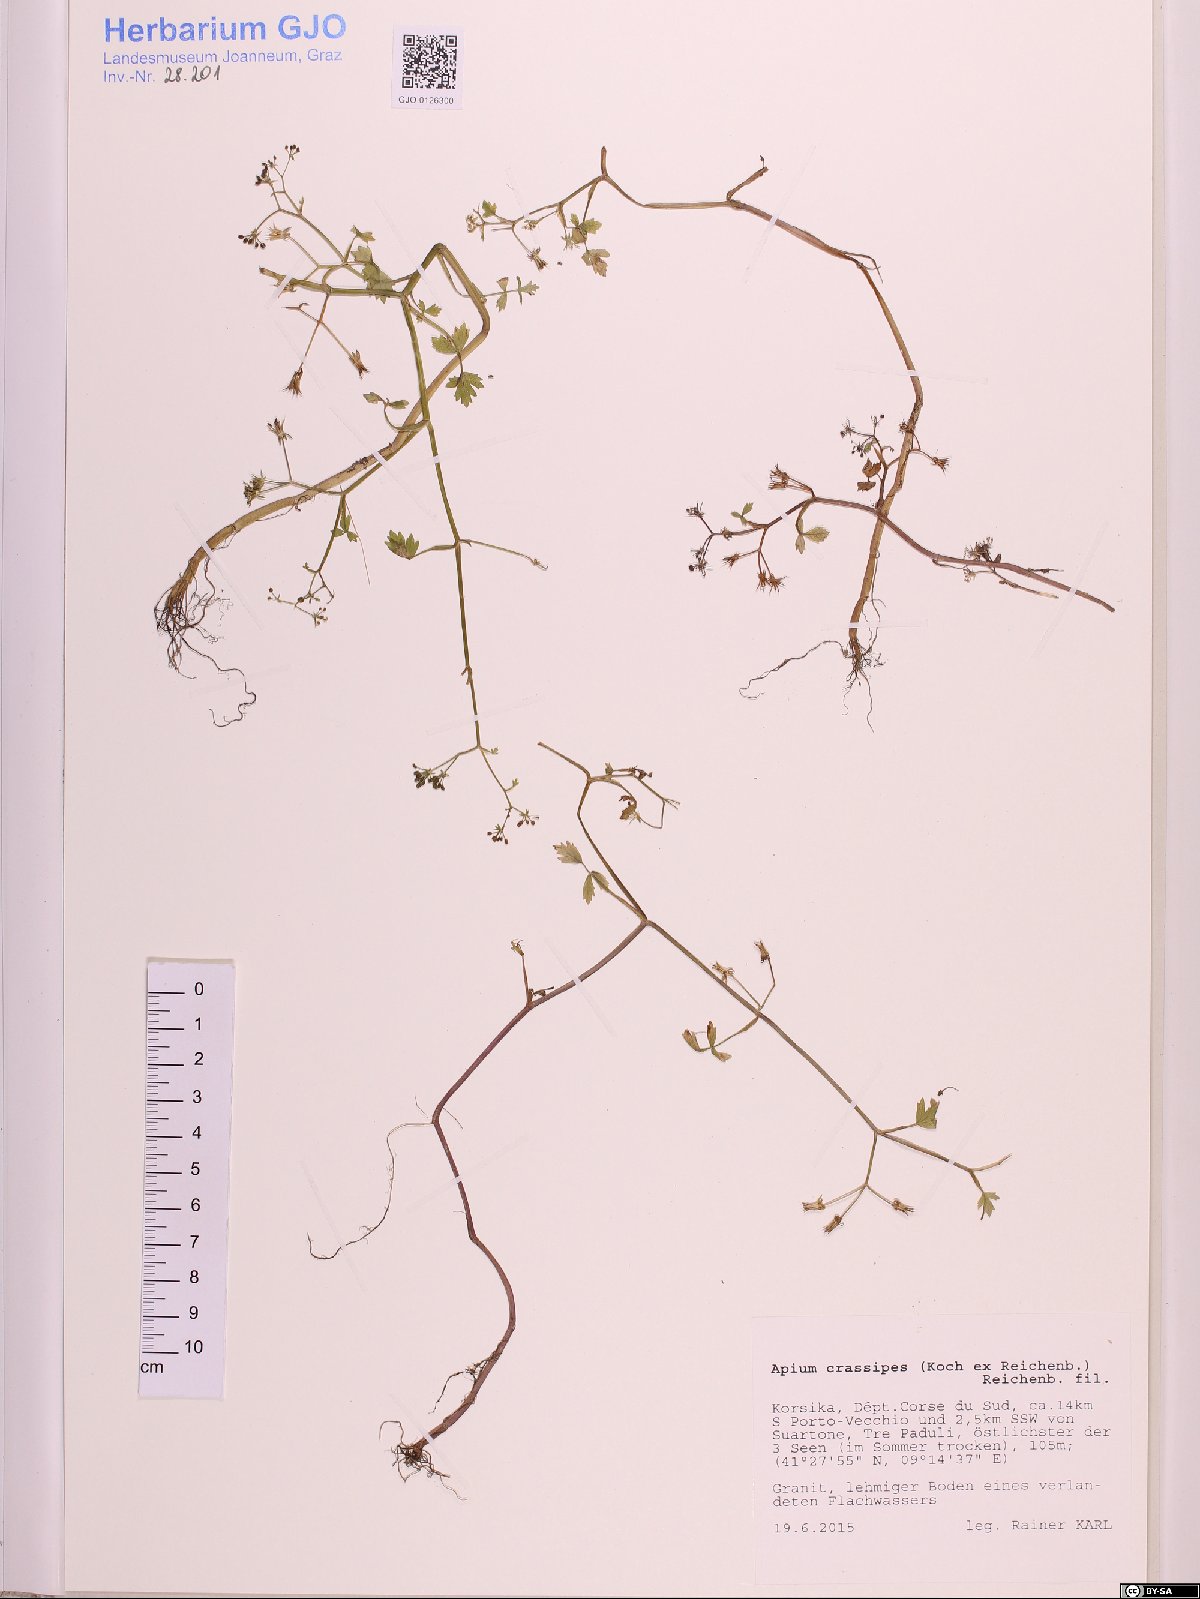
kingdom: Plantae
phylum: Tracheophyta
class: Magnoliopsida
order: Apiales
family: Apiaceae
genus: Helosciadium
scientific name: Helosciadium crassipes
